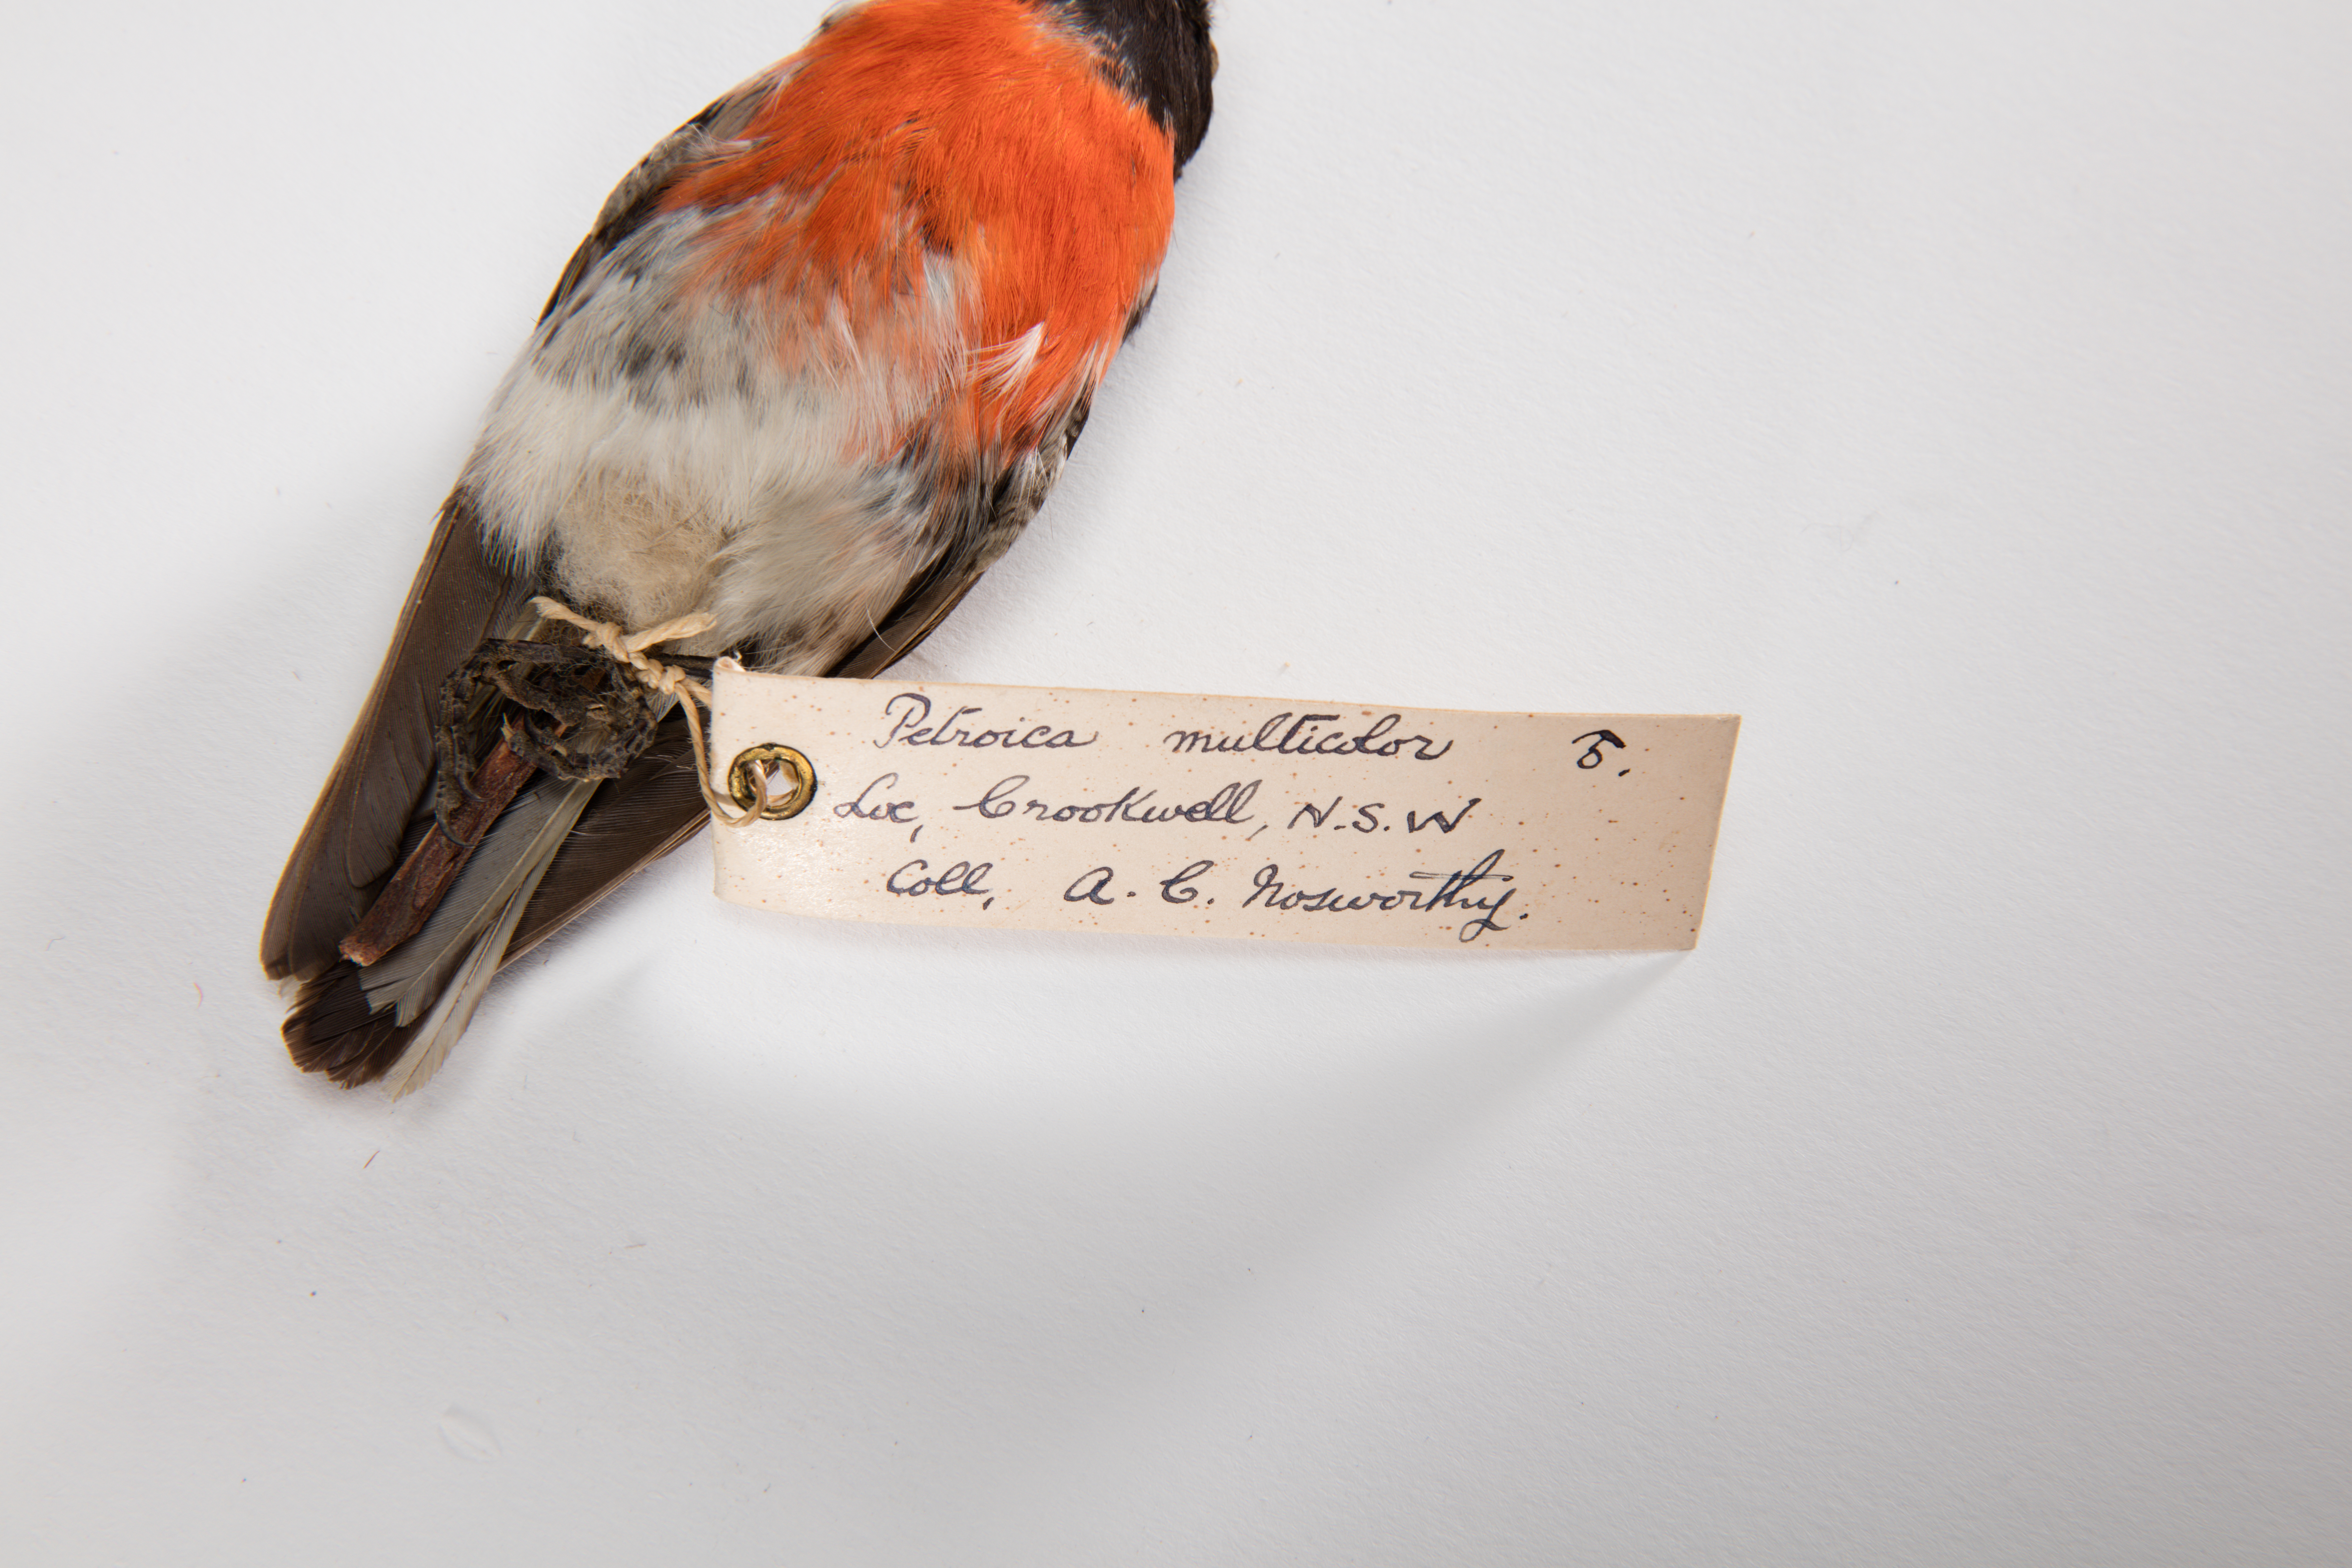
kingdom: Animalia
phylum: Chordata
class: Aves
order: Passeriformes
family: Petroicidae
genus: Petroica
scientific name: Petroica multicolor
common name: Pacific robin
